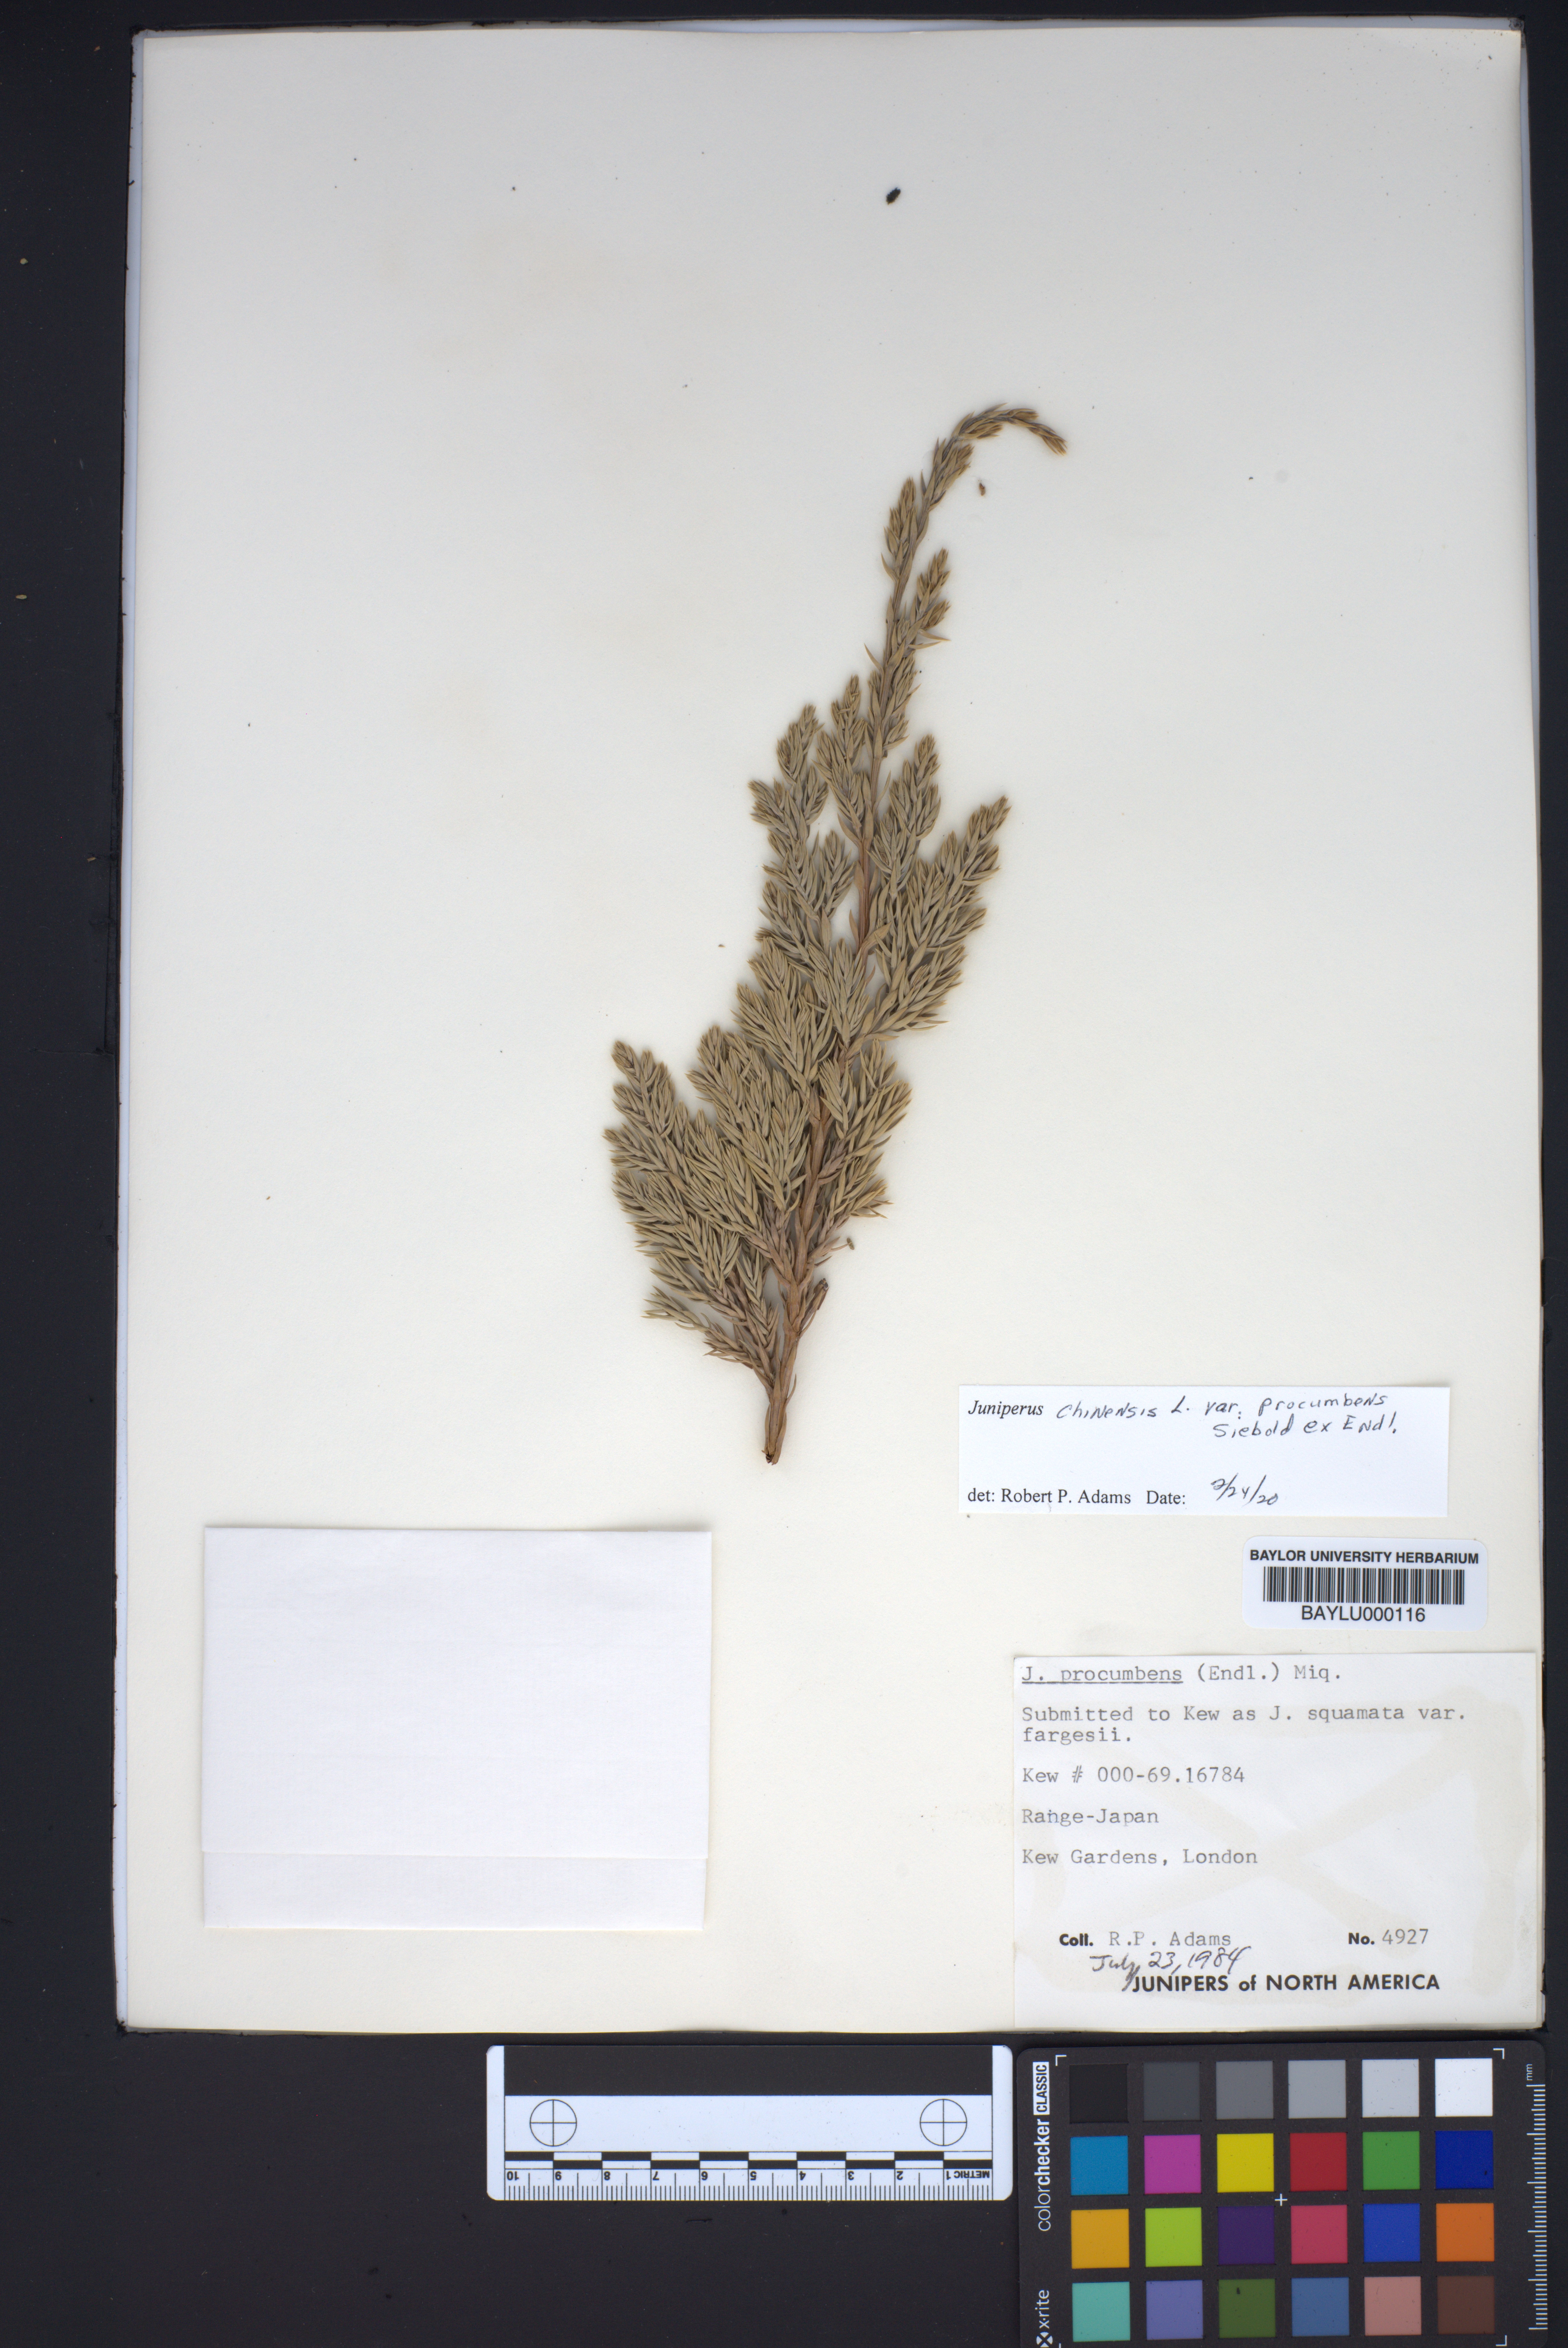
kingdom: Plantae
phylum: Tracheophyta
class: Pinopsida
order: Pinales
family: Cupressaceae
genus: Juniperus
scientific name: Juniperus procumbens
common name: Creeping juniper
